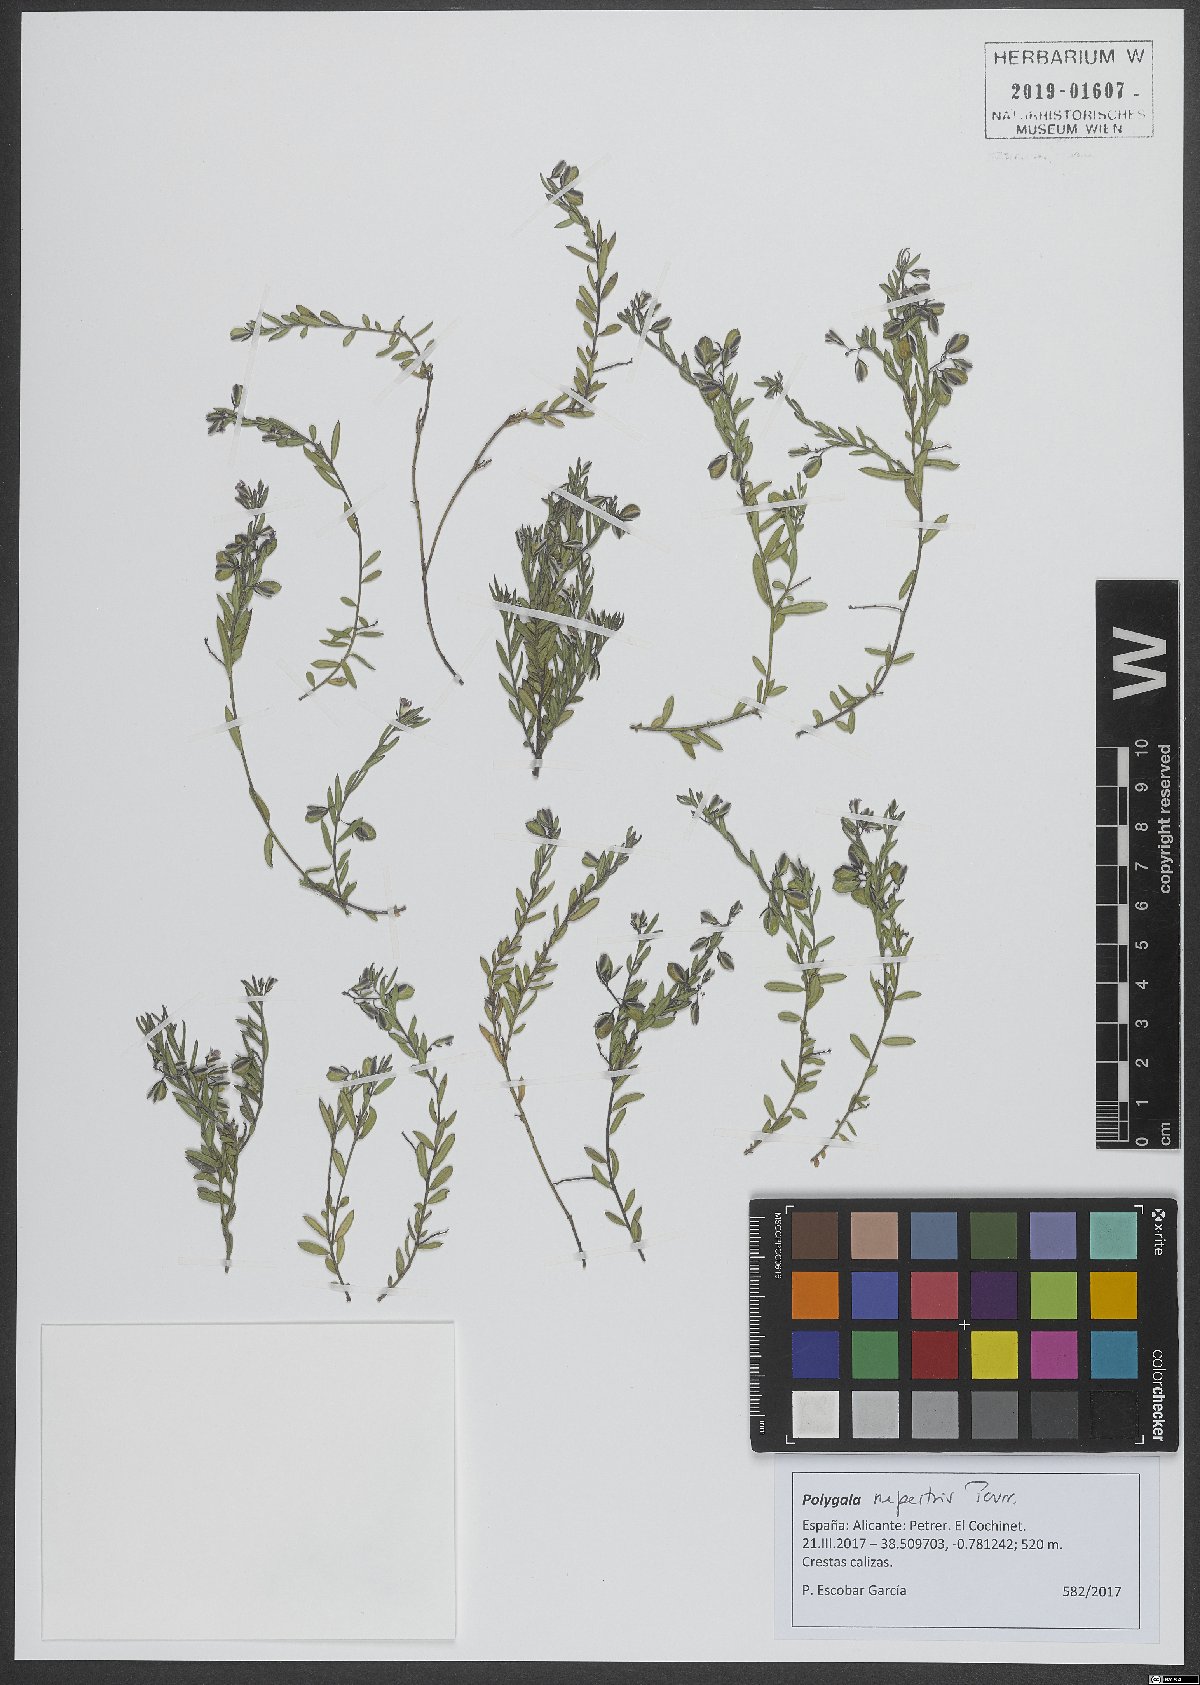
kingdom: Plantae
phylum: Tracheophyta
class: Magnoliopsida
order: Fabales
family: Polygalaceae
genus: Polygala
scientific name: Polygala rupestris
